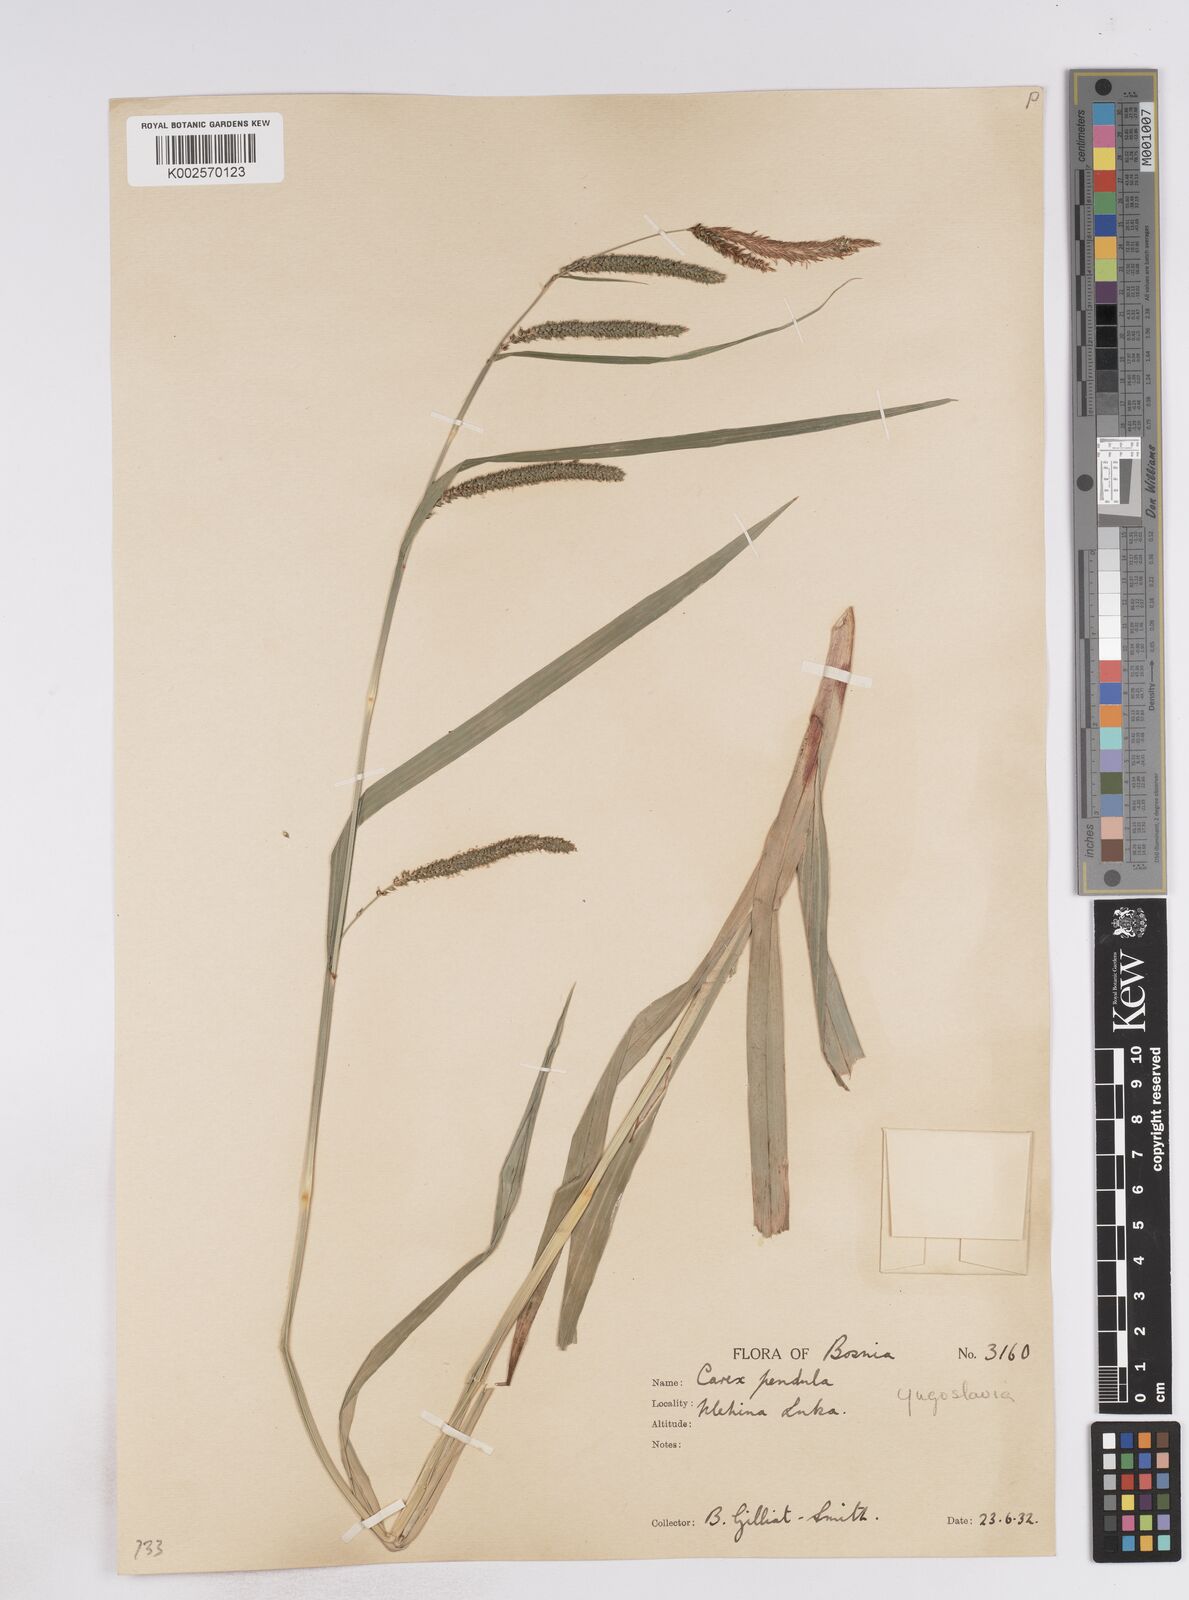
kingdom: Plantae
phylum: Tracheophyta
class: Liliopsida
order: Poales
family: Cyperaceae
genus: Carex
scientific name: Carex pendula
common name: Pendulous sedge
